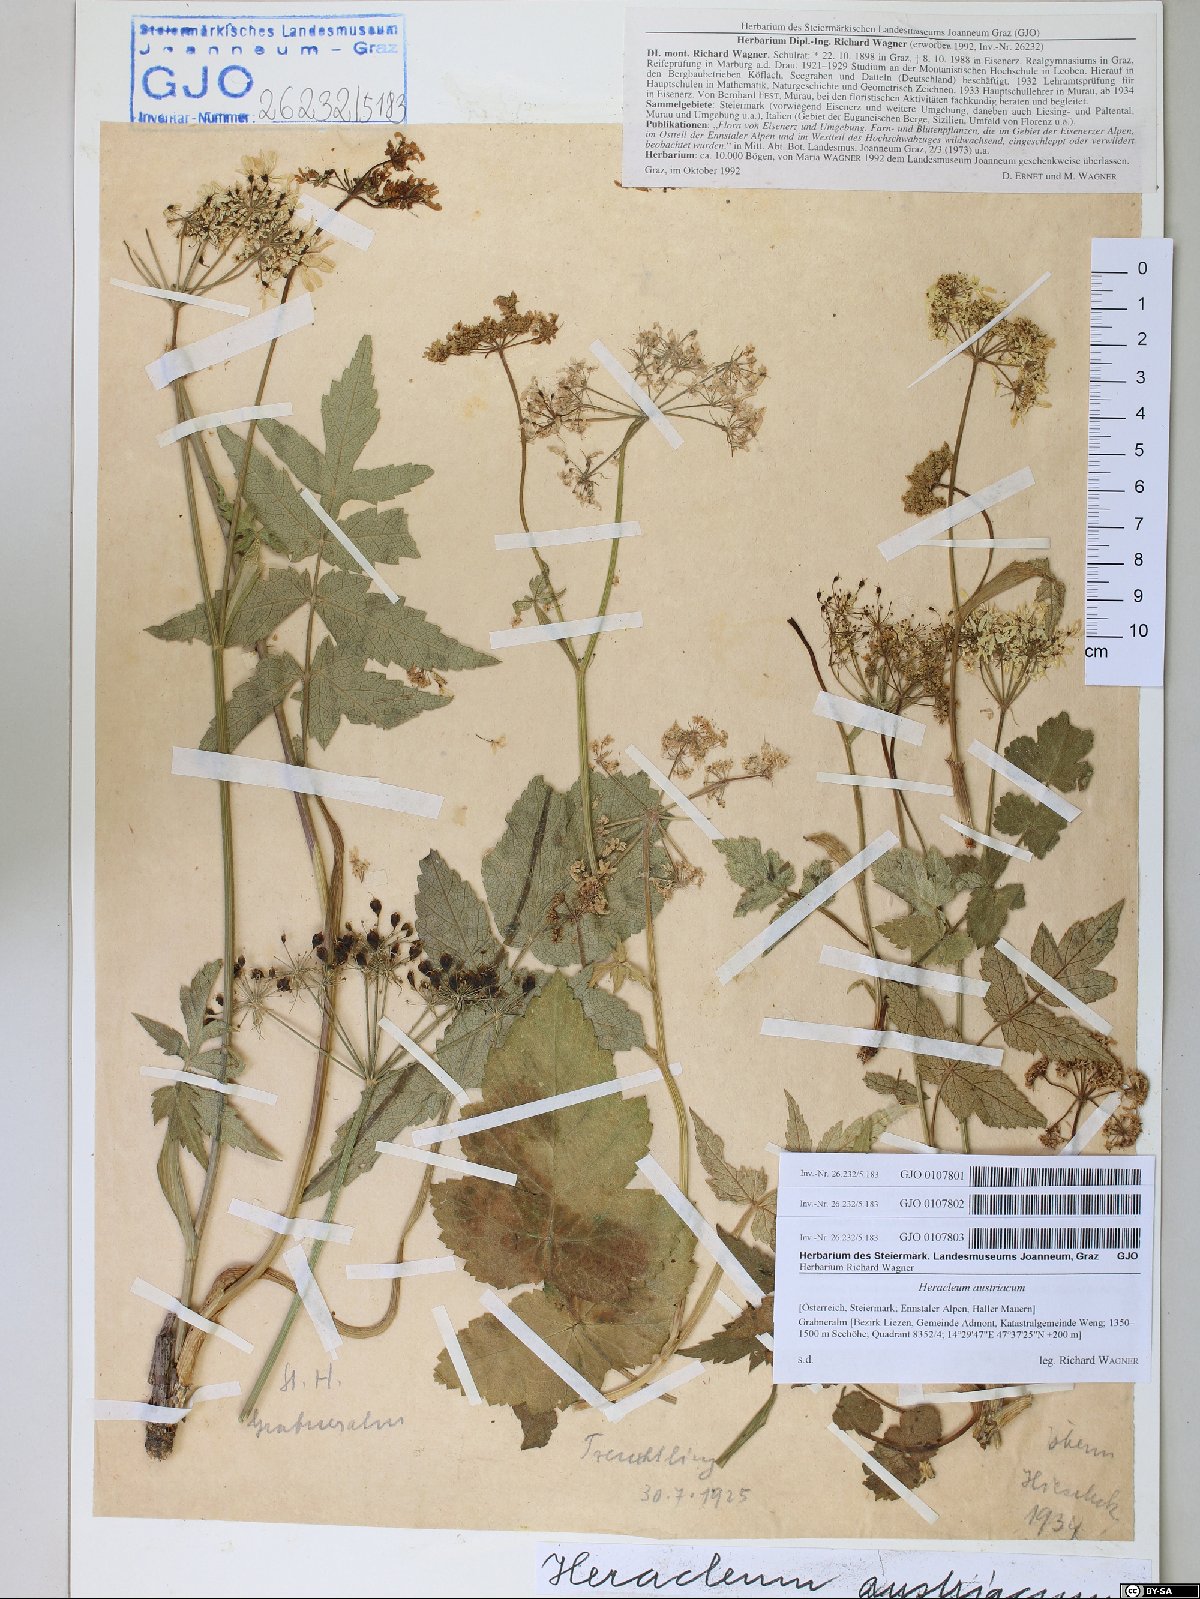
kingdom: Plantae
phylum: Tracheophyta
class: Magnoliopsida
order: Apiales
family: Apiaceae
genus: Heracleum
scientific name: Heracleum austriacum
